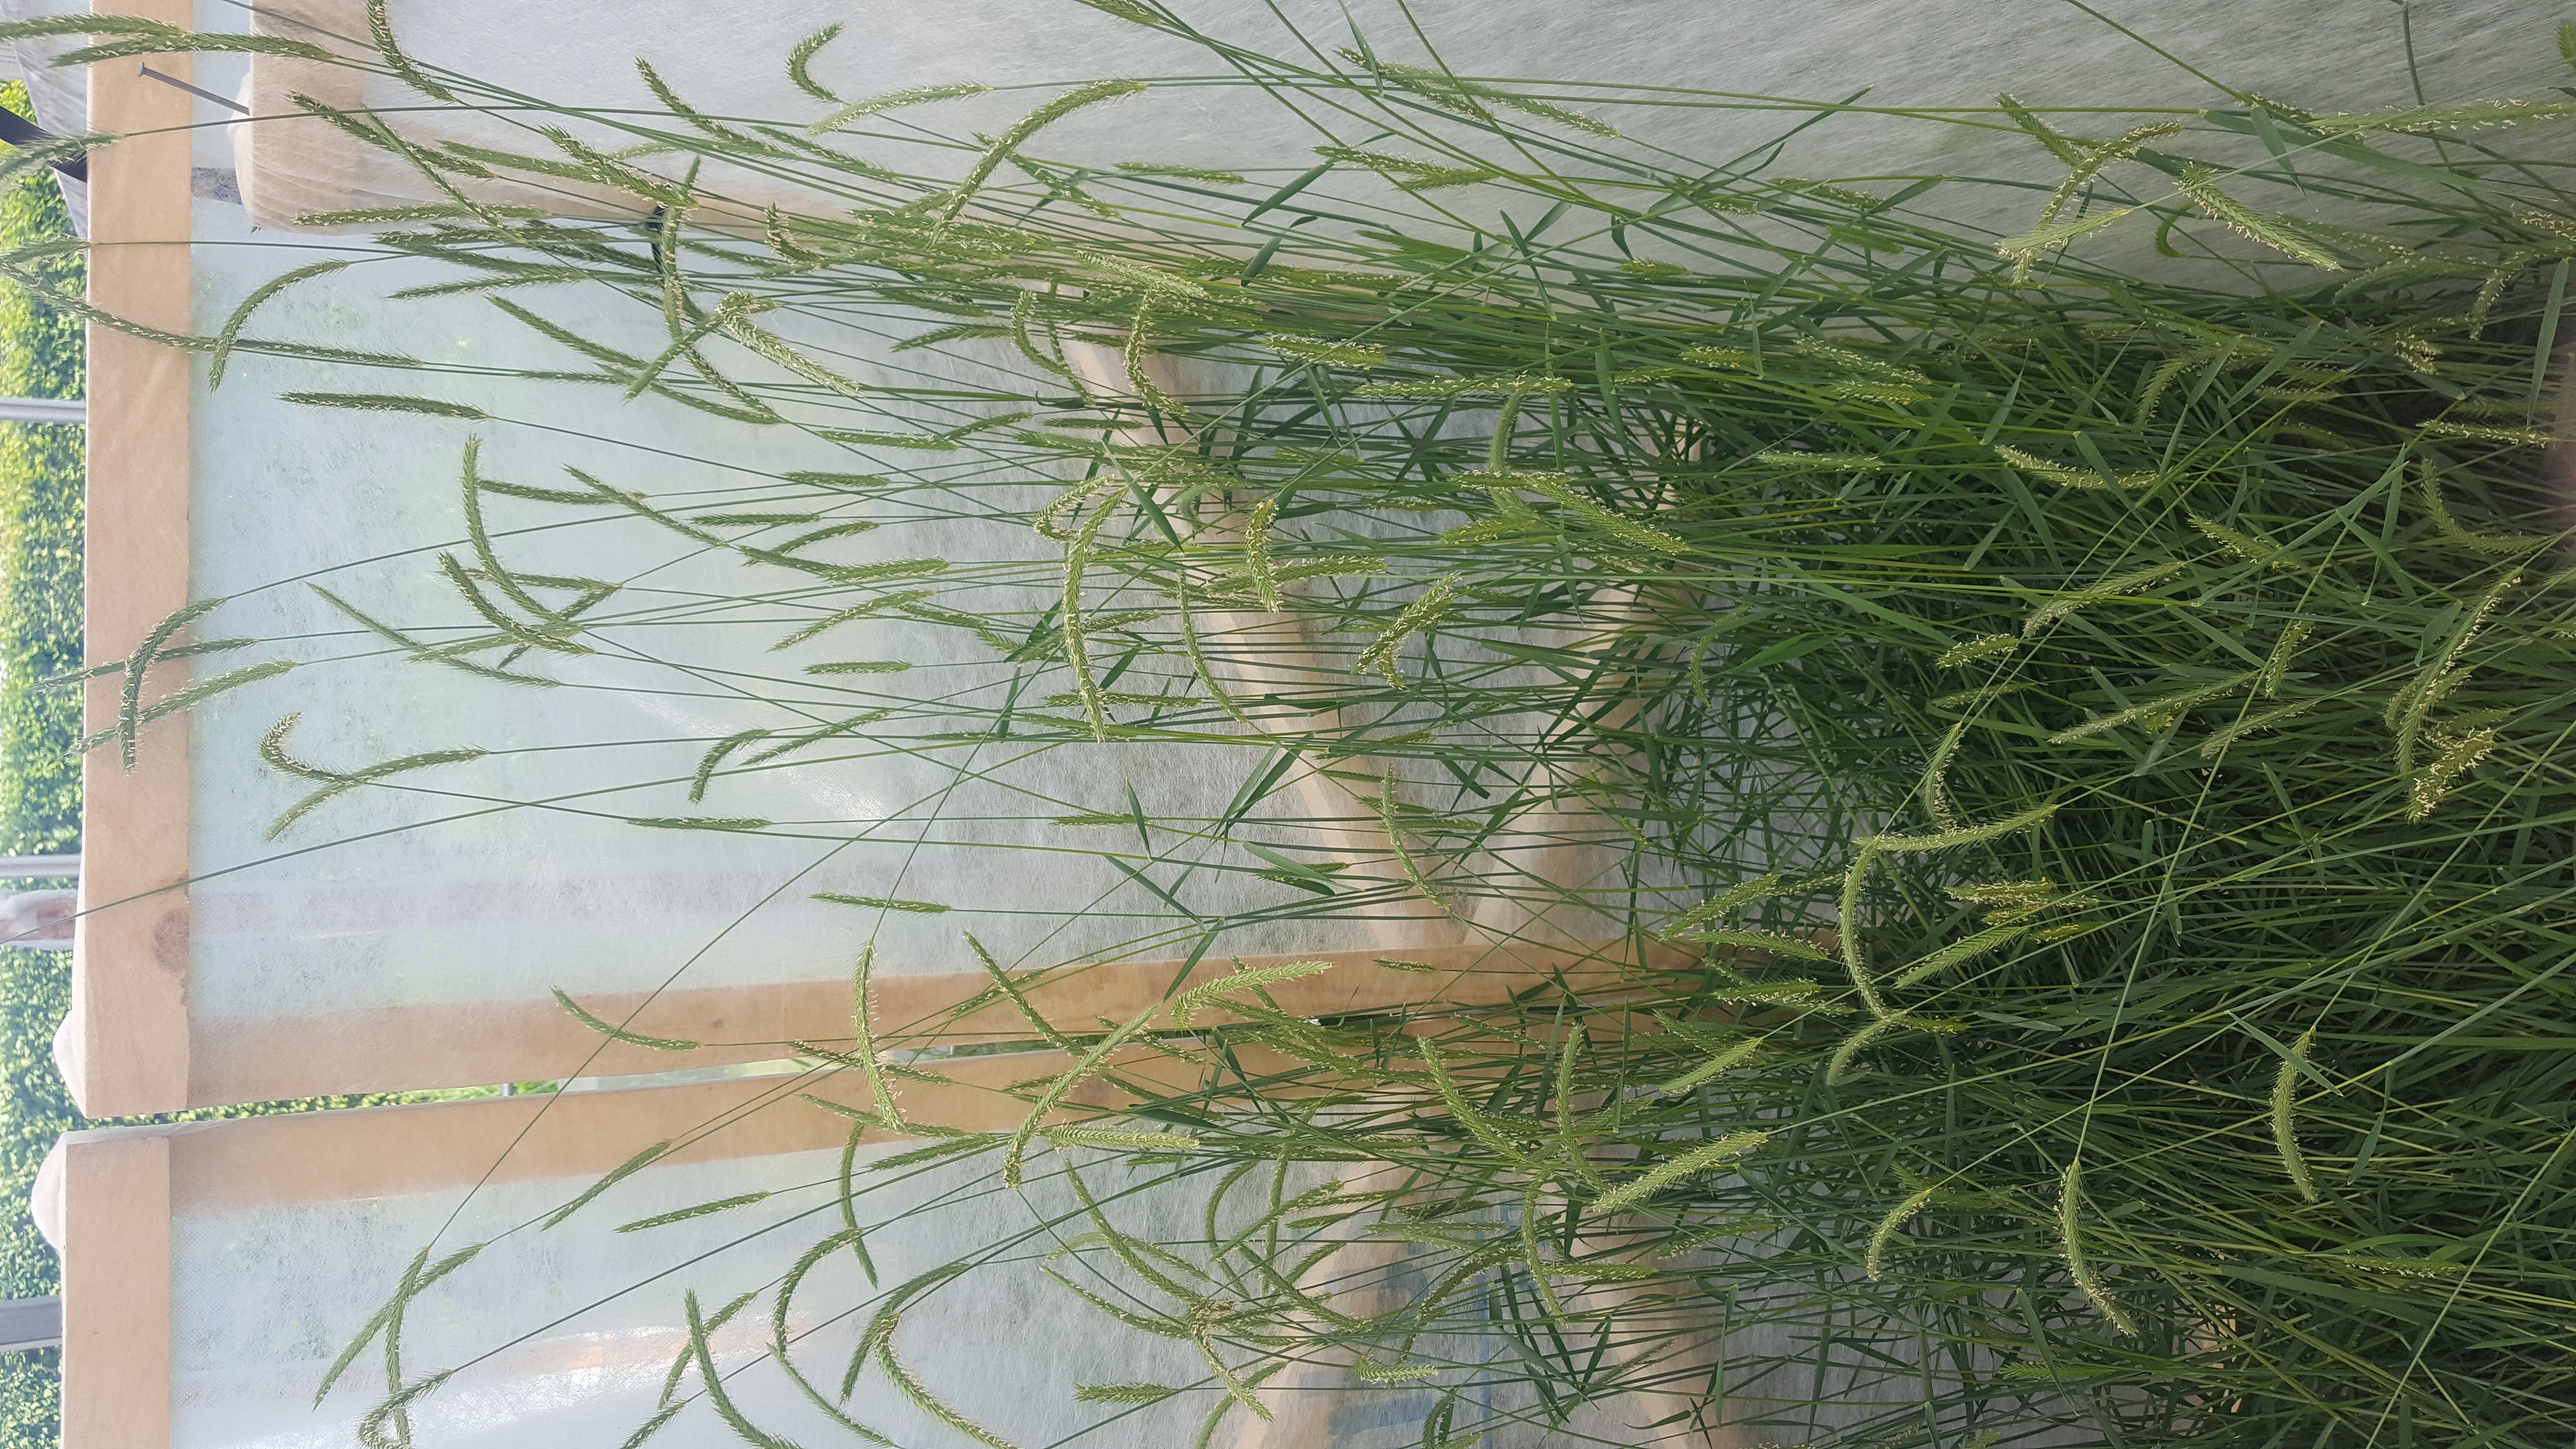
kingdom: Plantae
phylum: Tracheophyta
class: Liliopsida
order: Poales
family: Poaceae
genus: Hordeum
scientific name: Hordeum parodii
